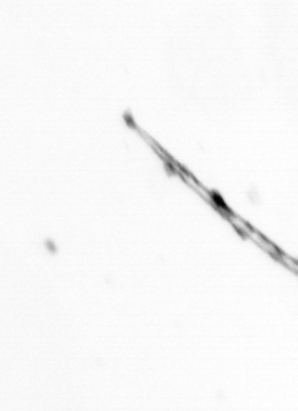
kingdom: Chromista
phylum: Ochrophyta
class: Bacillariophyceae
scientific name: Bacillariophyceae
